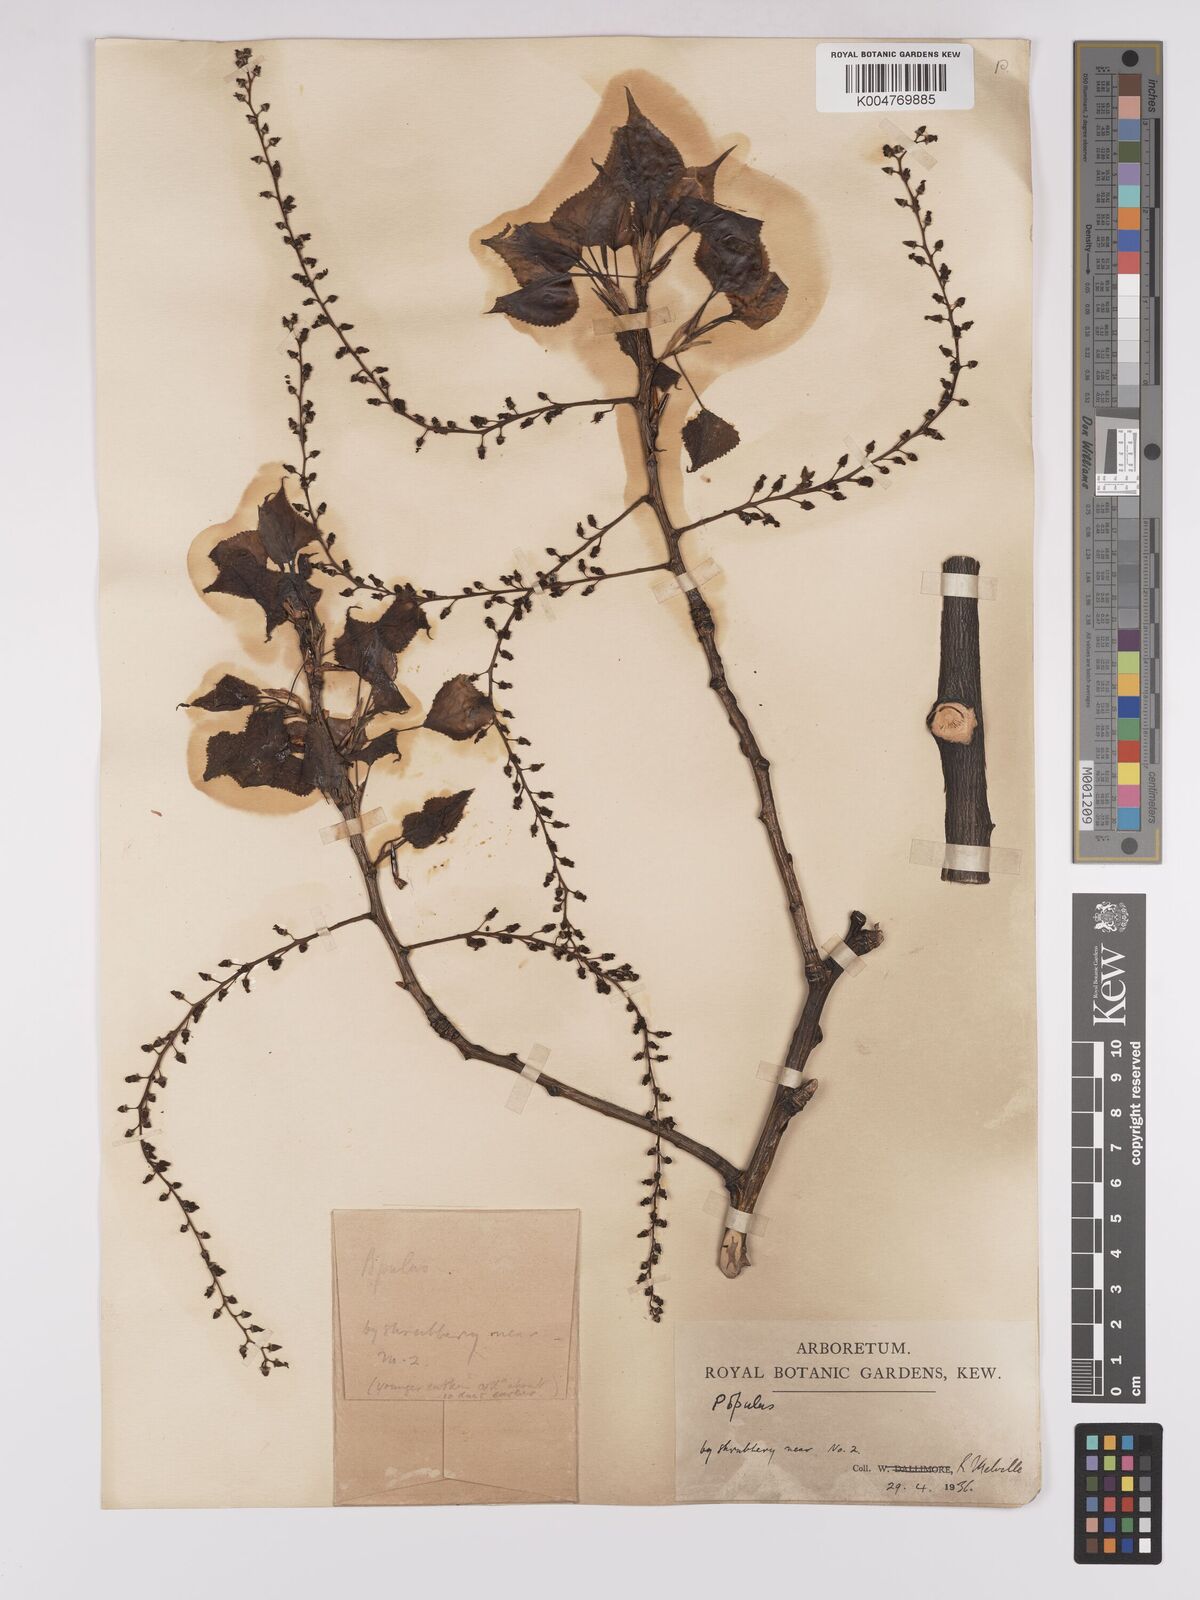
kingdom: Plantae
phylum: Tracheophyta
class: Magnoliopsida
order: Malpighiales
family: Salicaceae
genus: Populus
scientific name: Populus dubia
